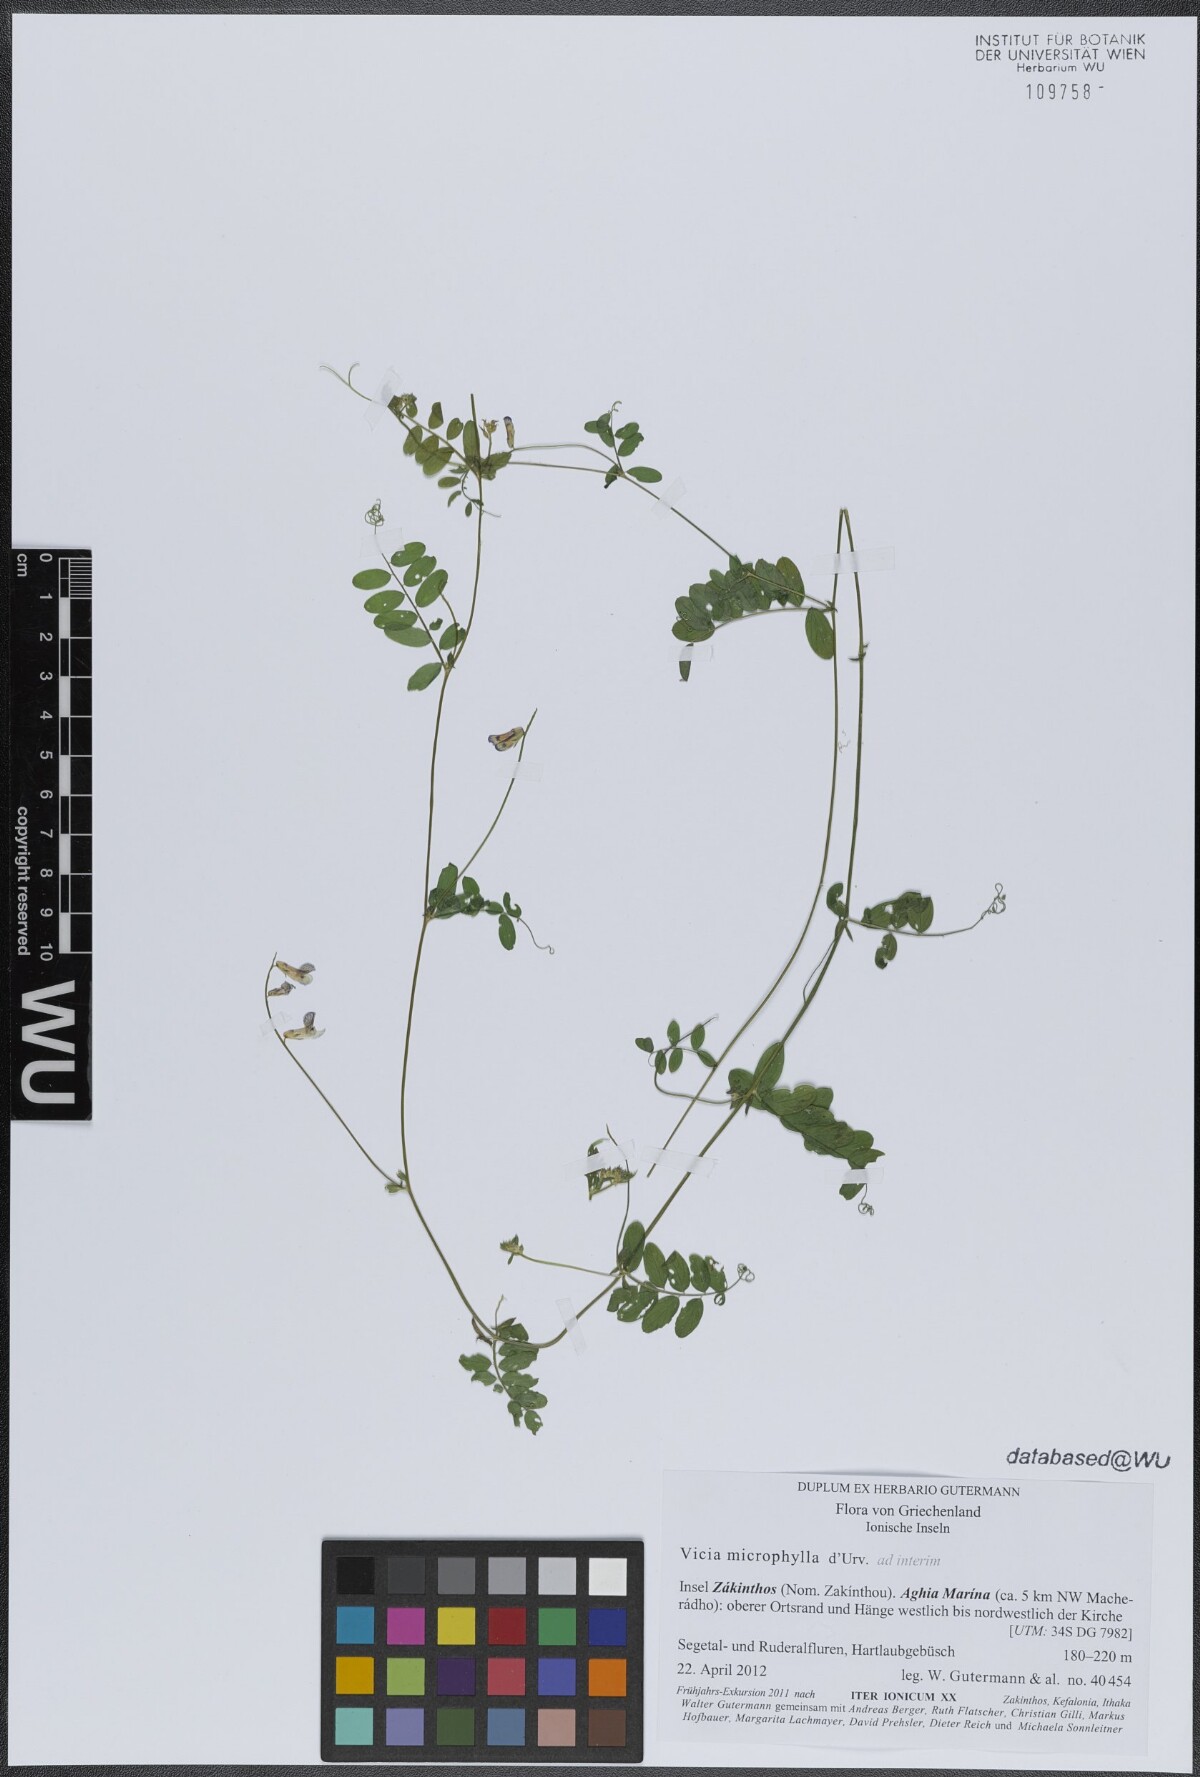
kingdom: Plantae
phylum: Tracheophyta
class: Magnoliopsida
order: Fabales
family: Fabaceae
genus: Vicia
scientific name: Vicia villosa
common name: Fodder vetch
